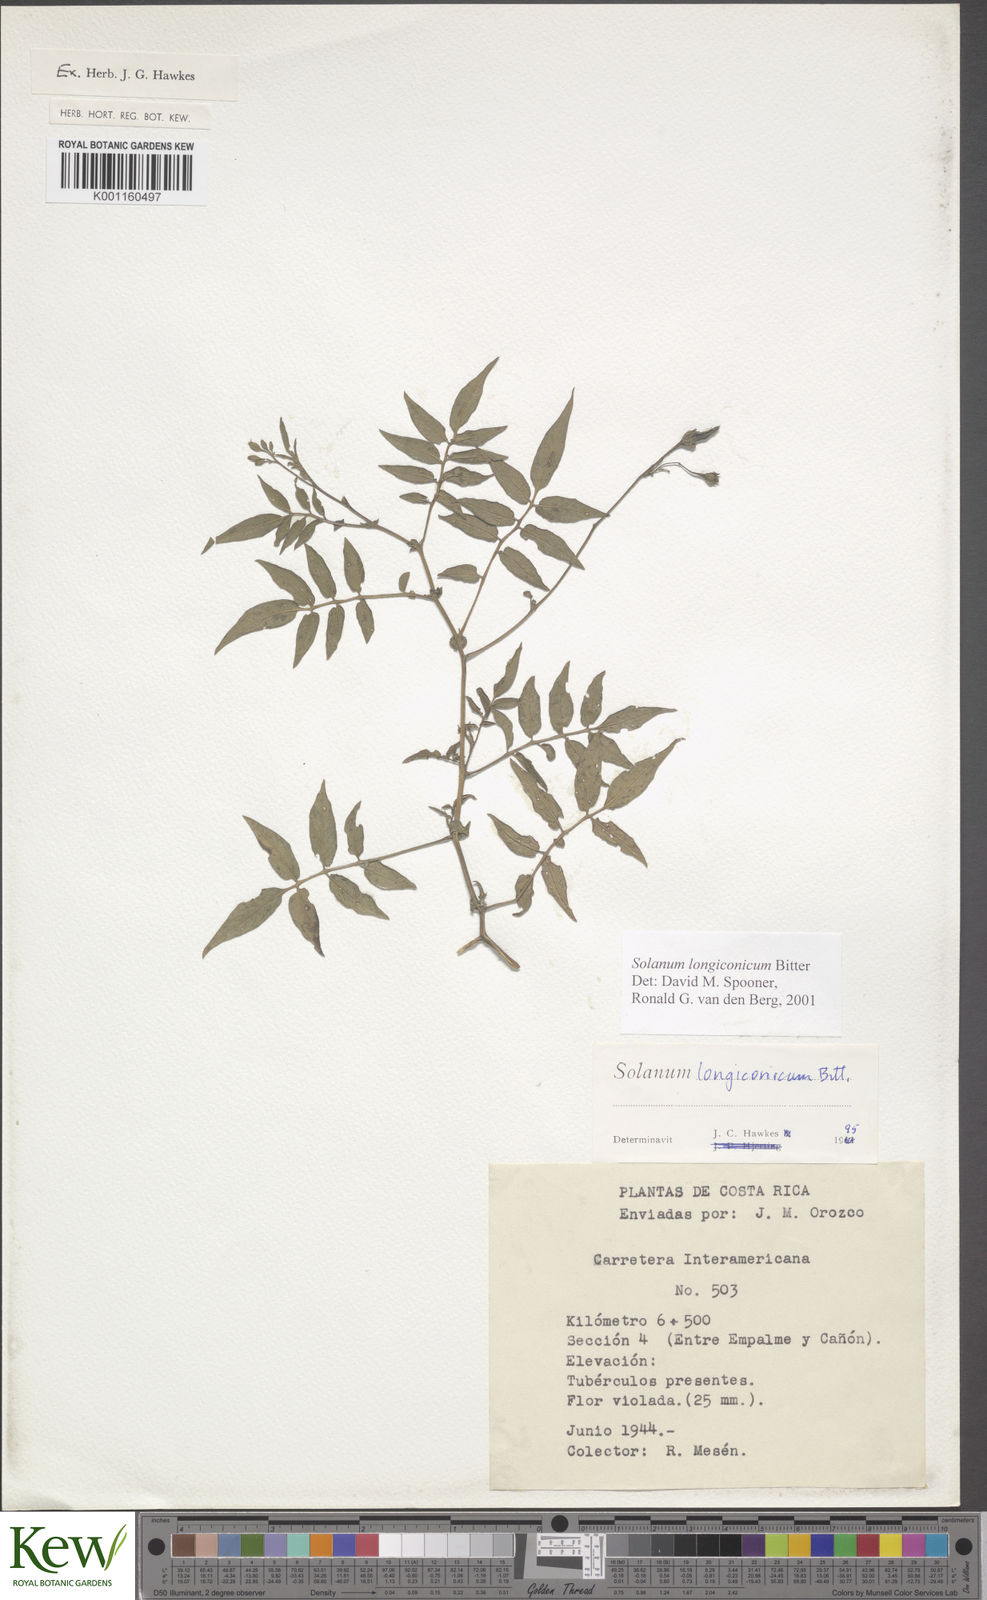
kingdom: Plantae
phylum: Tracheophyta
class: Magnoliopsida
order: Solanales
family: Solanaceae
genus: Solanum
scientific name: Solanum longiconicum
